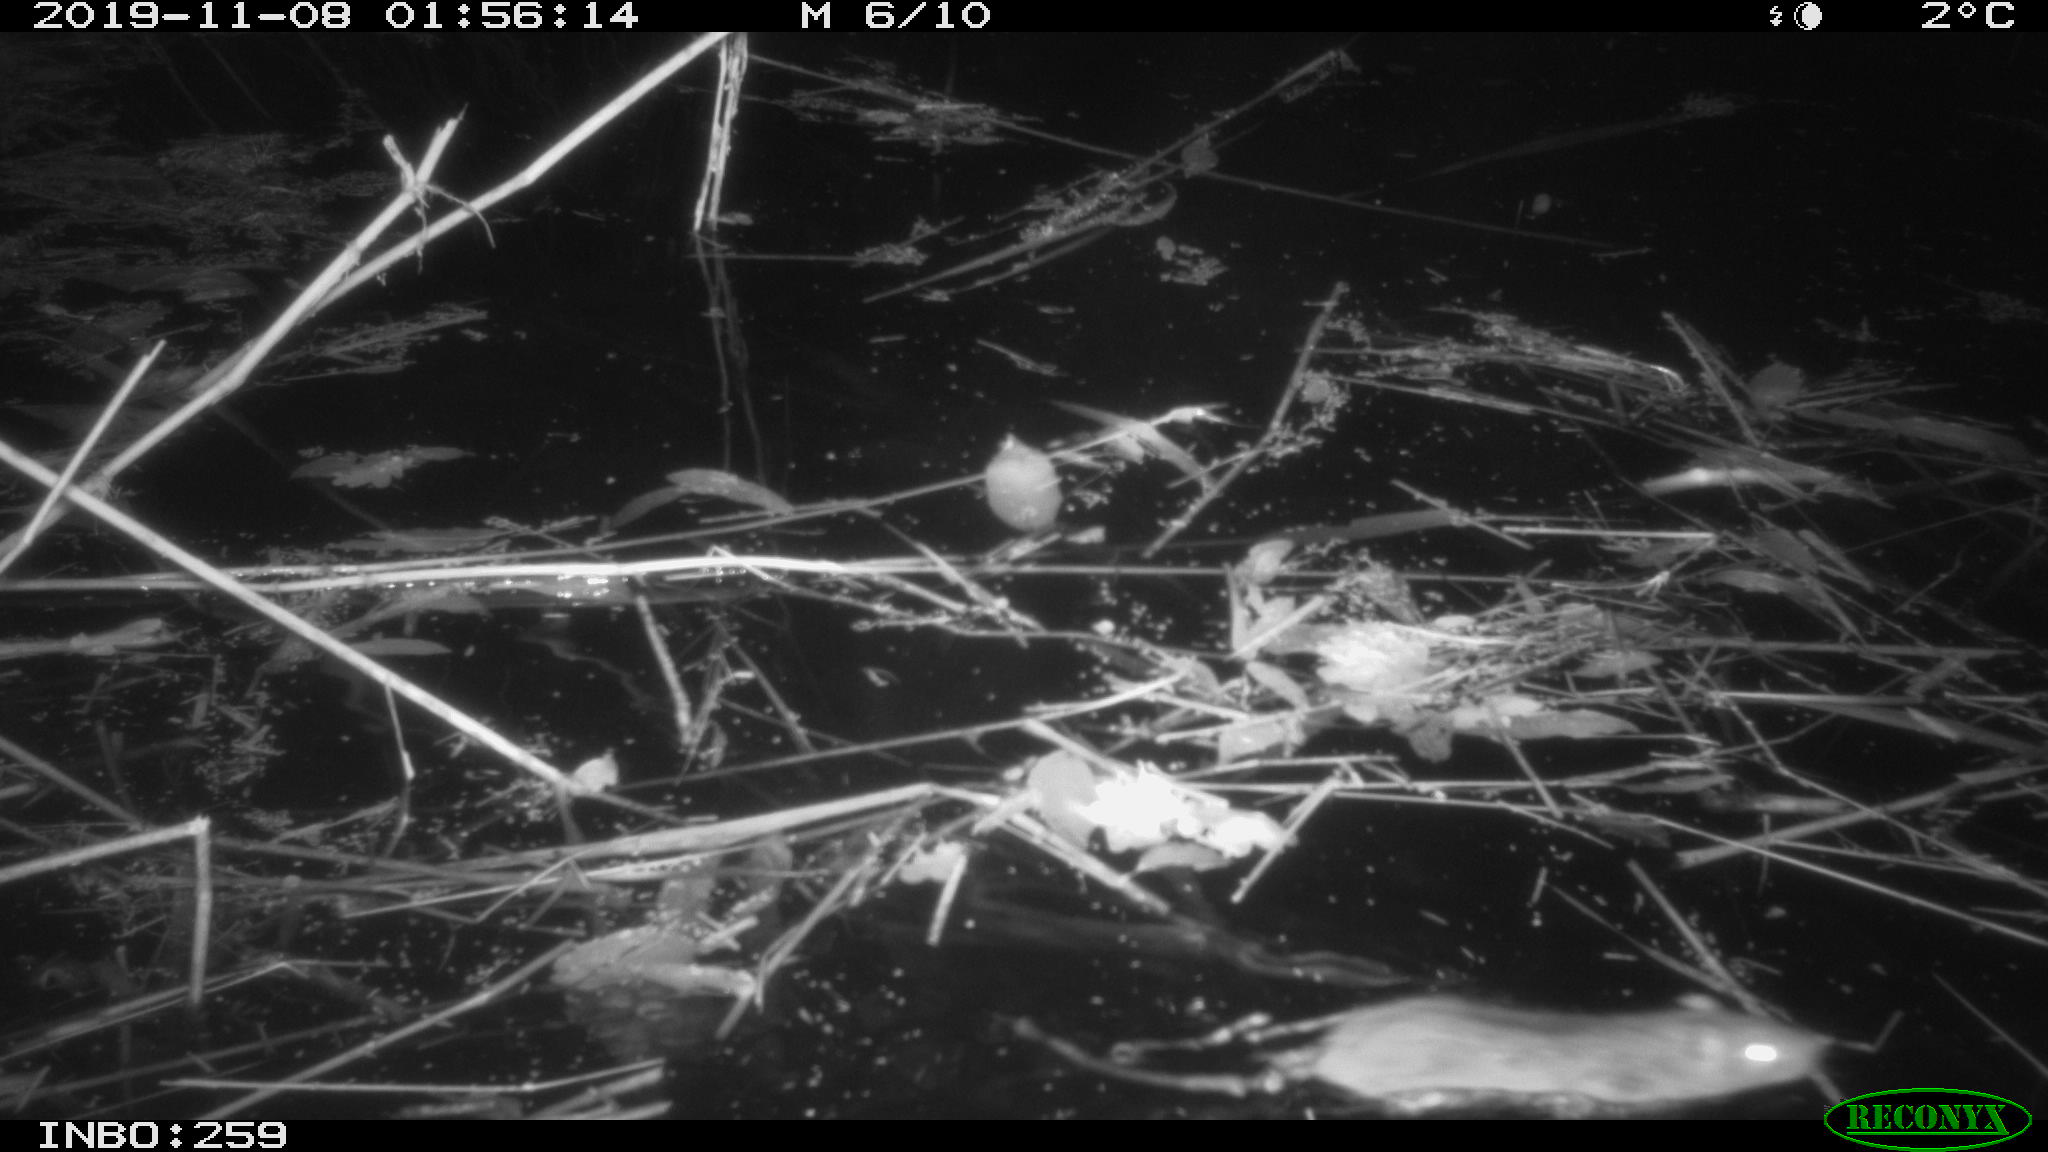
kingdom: Animalia
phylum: Chordata
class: Mammalia
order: Rodentia
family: Muridae
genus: Rattus
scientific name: Rattus norvegicus
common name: Brown rat
